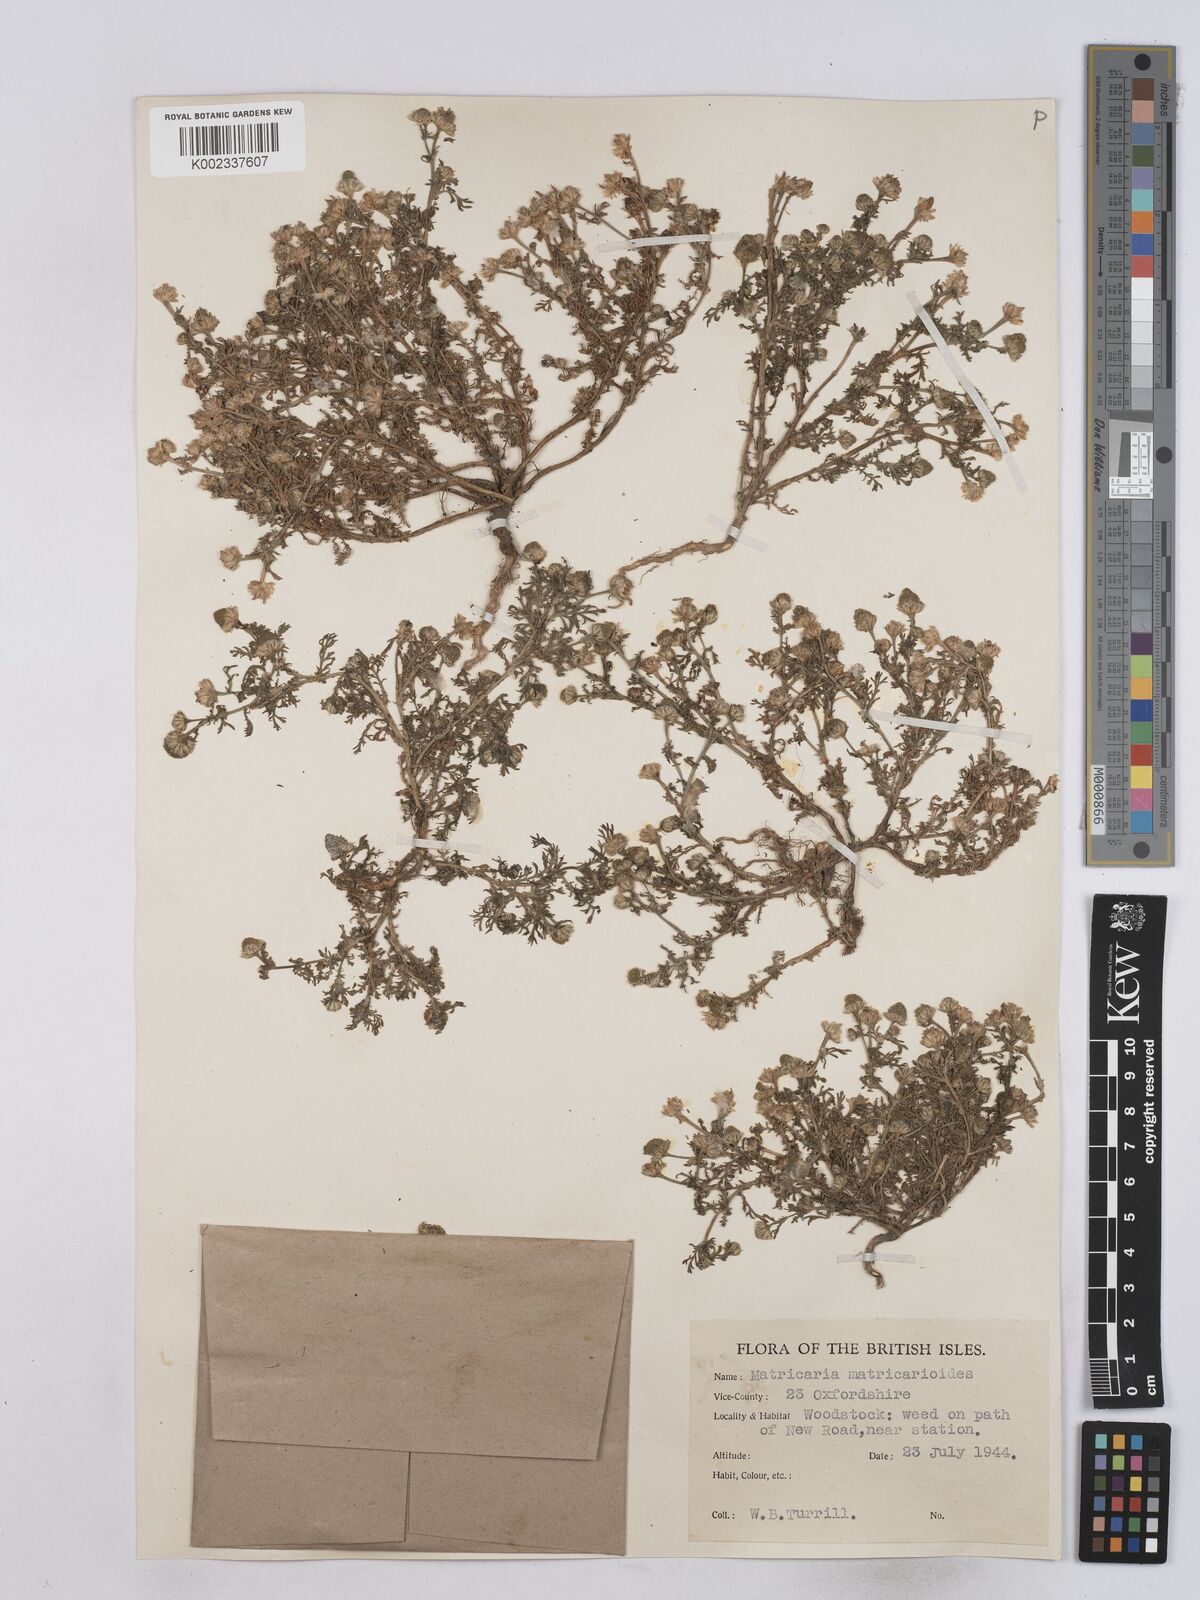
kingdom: Plantae
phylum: Tracheophyta
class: Magnoliopsida
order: Asterales
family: Asteraceae
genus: Matricaria
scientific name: Matricaria discoidea
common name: Disc mayweed
